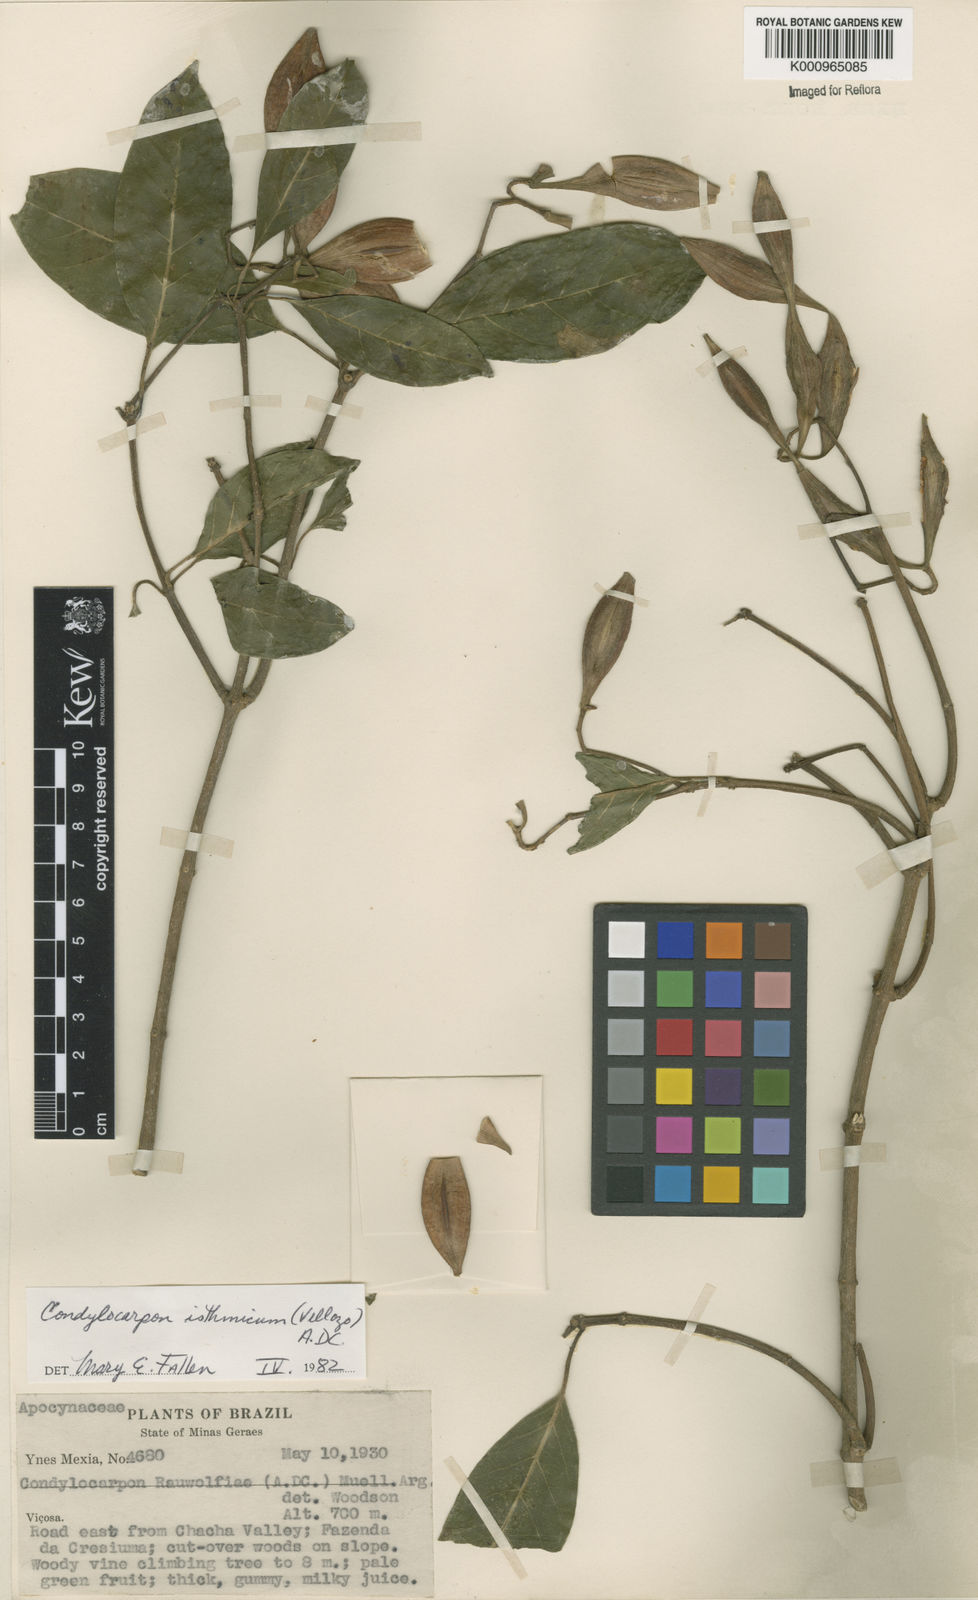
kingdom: Plantae
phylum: Tracheophyta
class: Magnoliopsida
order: Gentianales
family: Apocynaceae
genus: Condylocarpon
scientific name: Condylocarpon isthmicum
